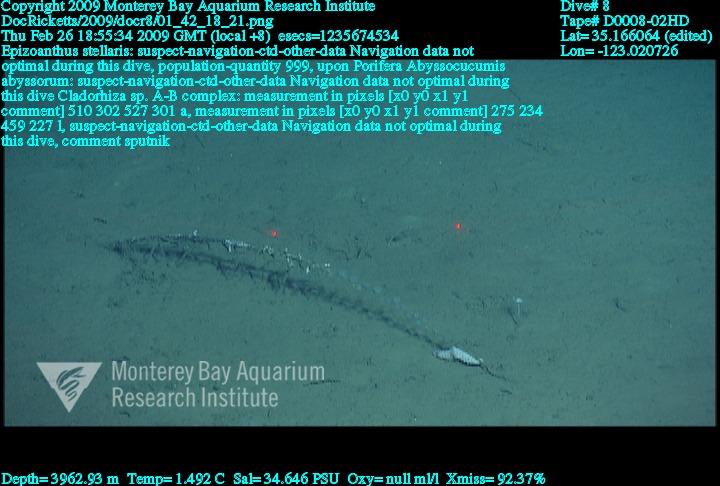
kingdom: Animalia
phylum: Porifera
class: Demospongiae
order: Poecilosclerida
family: Cladorhizidae
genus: Cladorhiza
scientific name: Cladorhiza
